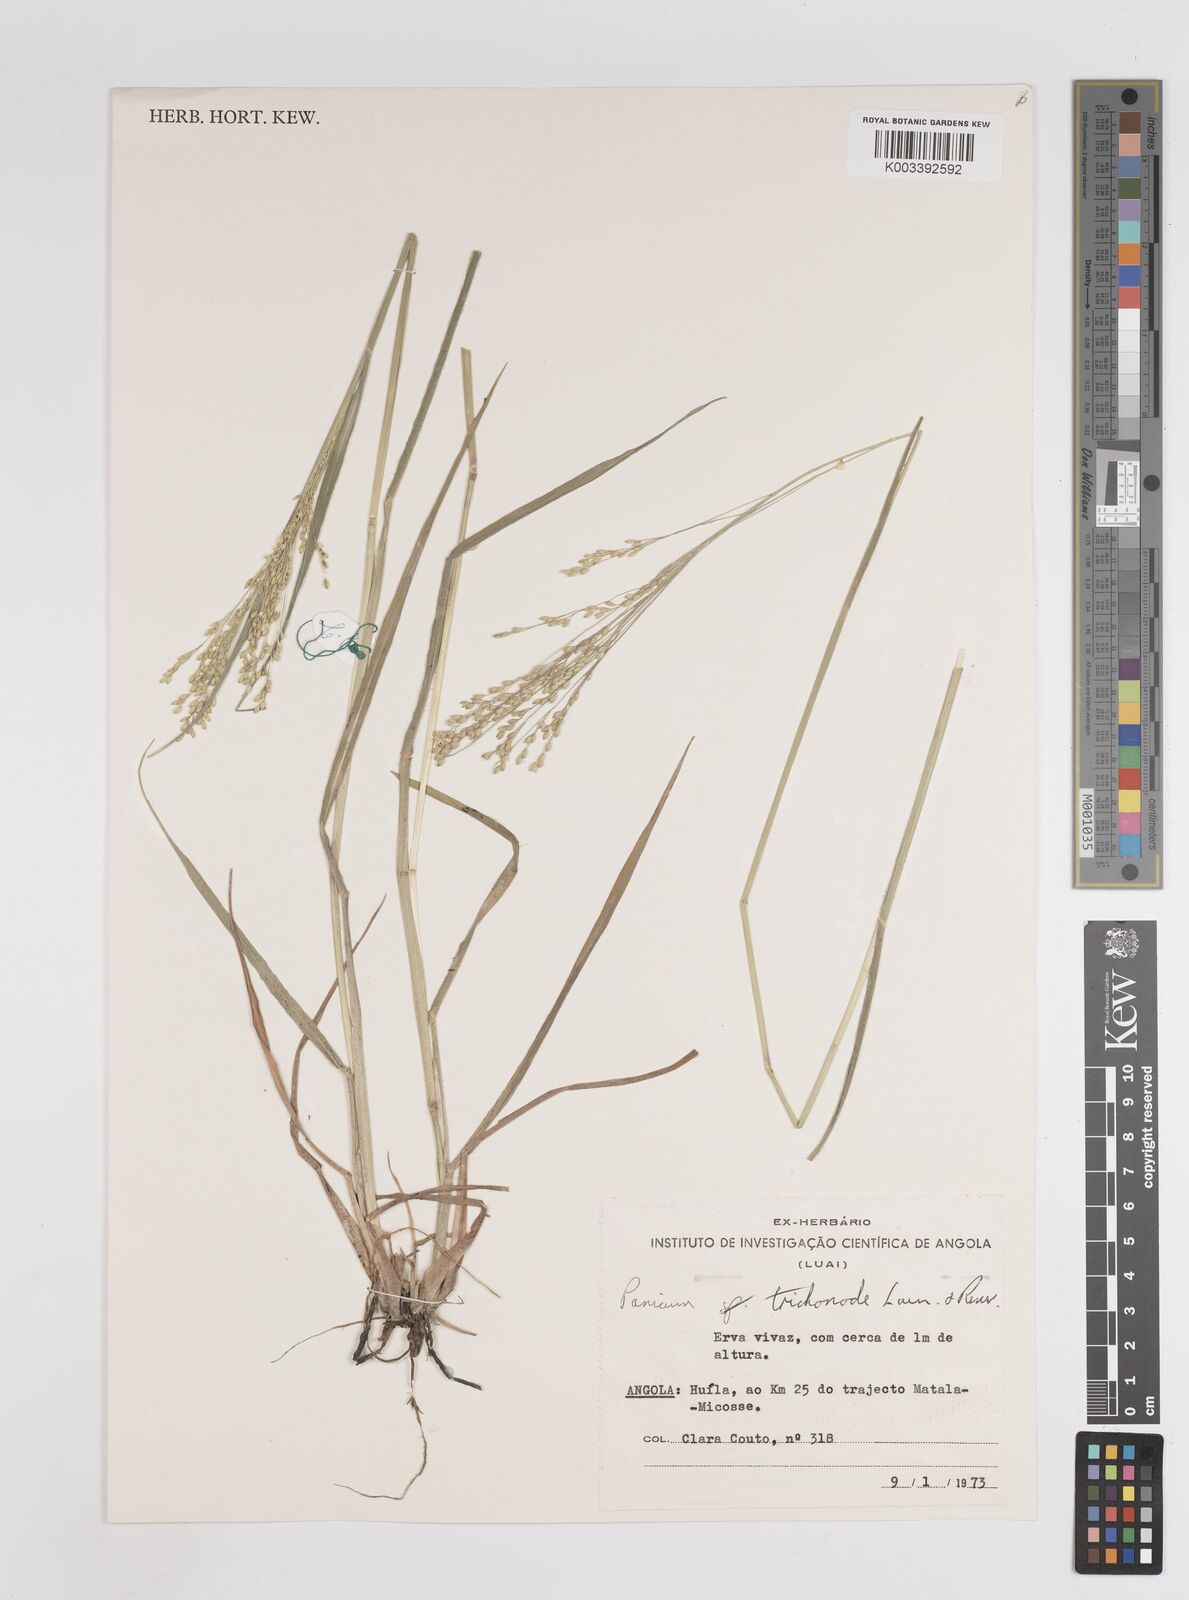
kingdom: Plantae
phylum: Tracheophyta
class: Liliopsida
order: Poales
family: Poaceae
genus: Panicum
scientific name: Panicum trichonode
